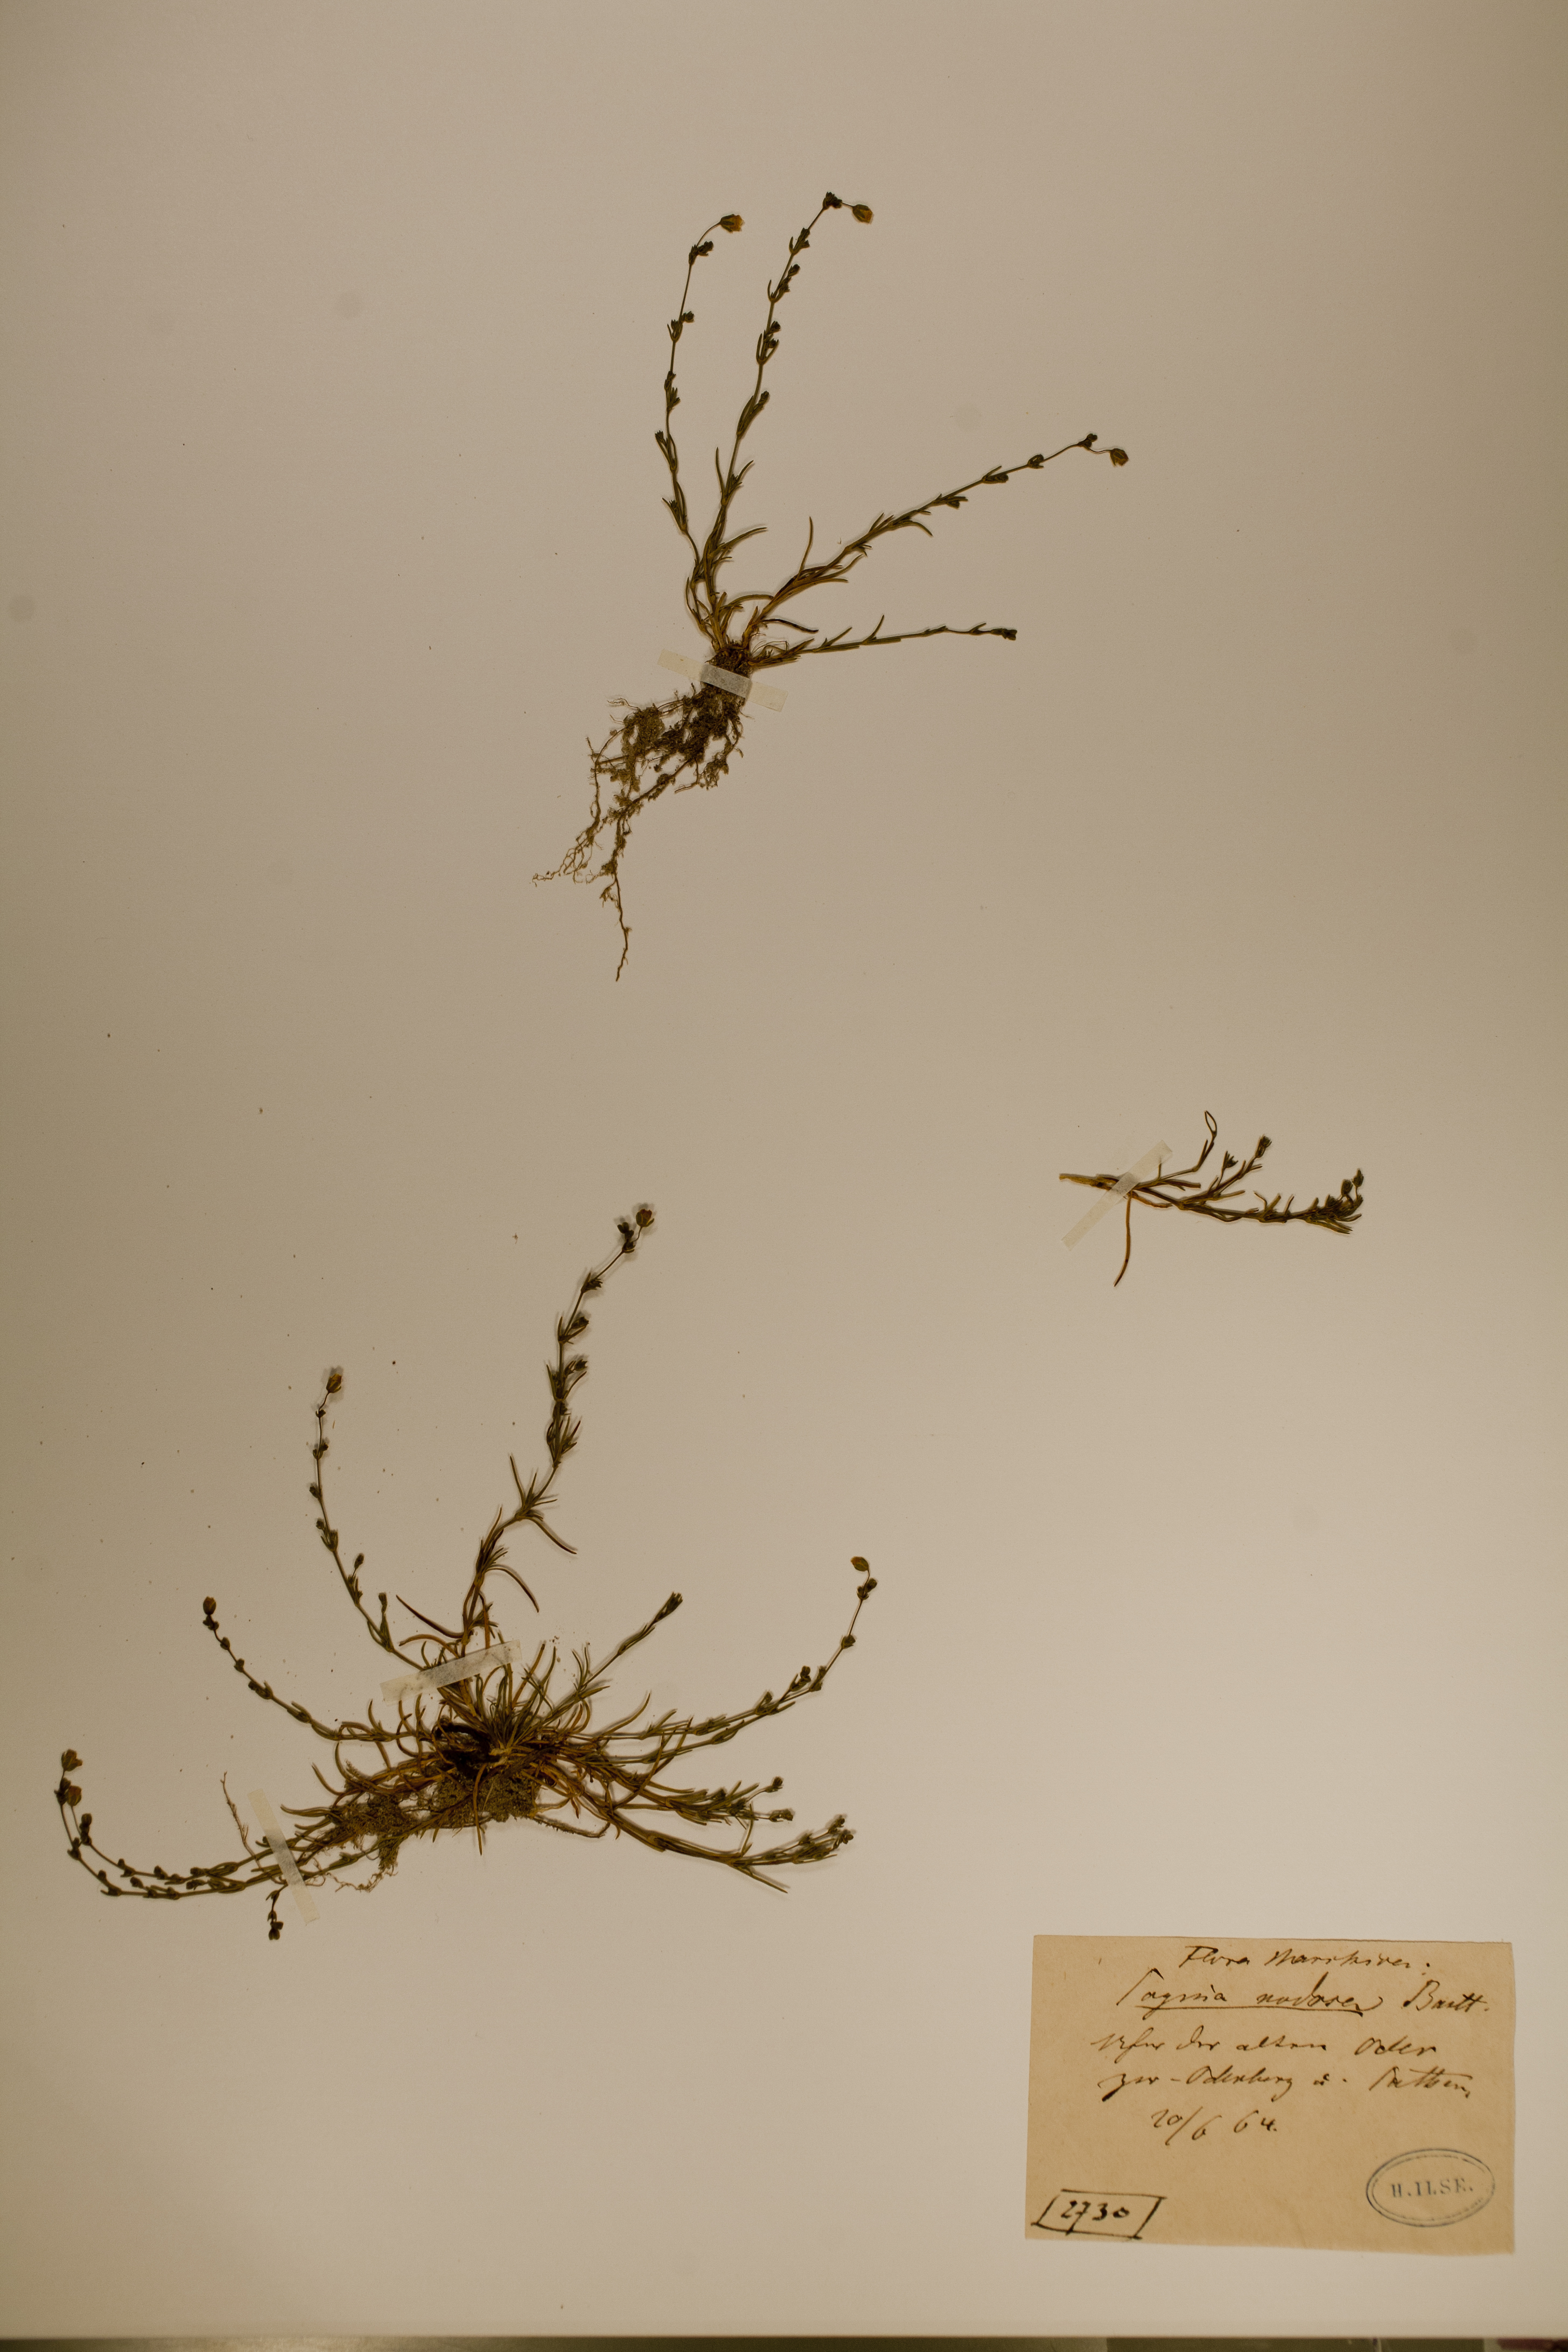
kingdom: Plantae
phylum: Tracheophyta
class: Magnoliopsida
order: Caryophyllales
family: Caryophyllaceae
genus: Sagina
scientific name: Sagina nodosa
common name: Knotted pearlwort
